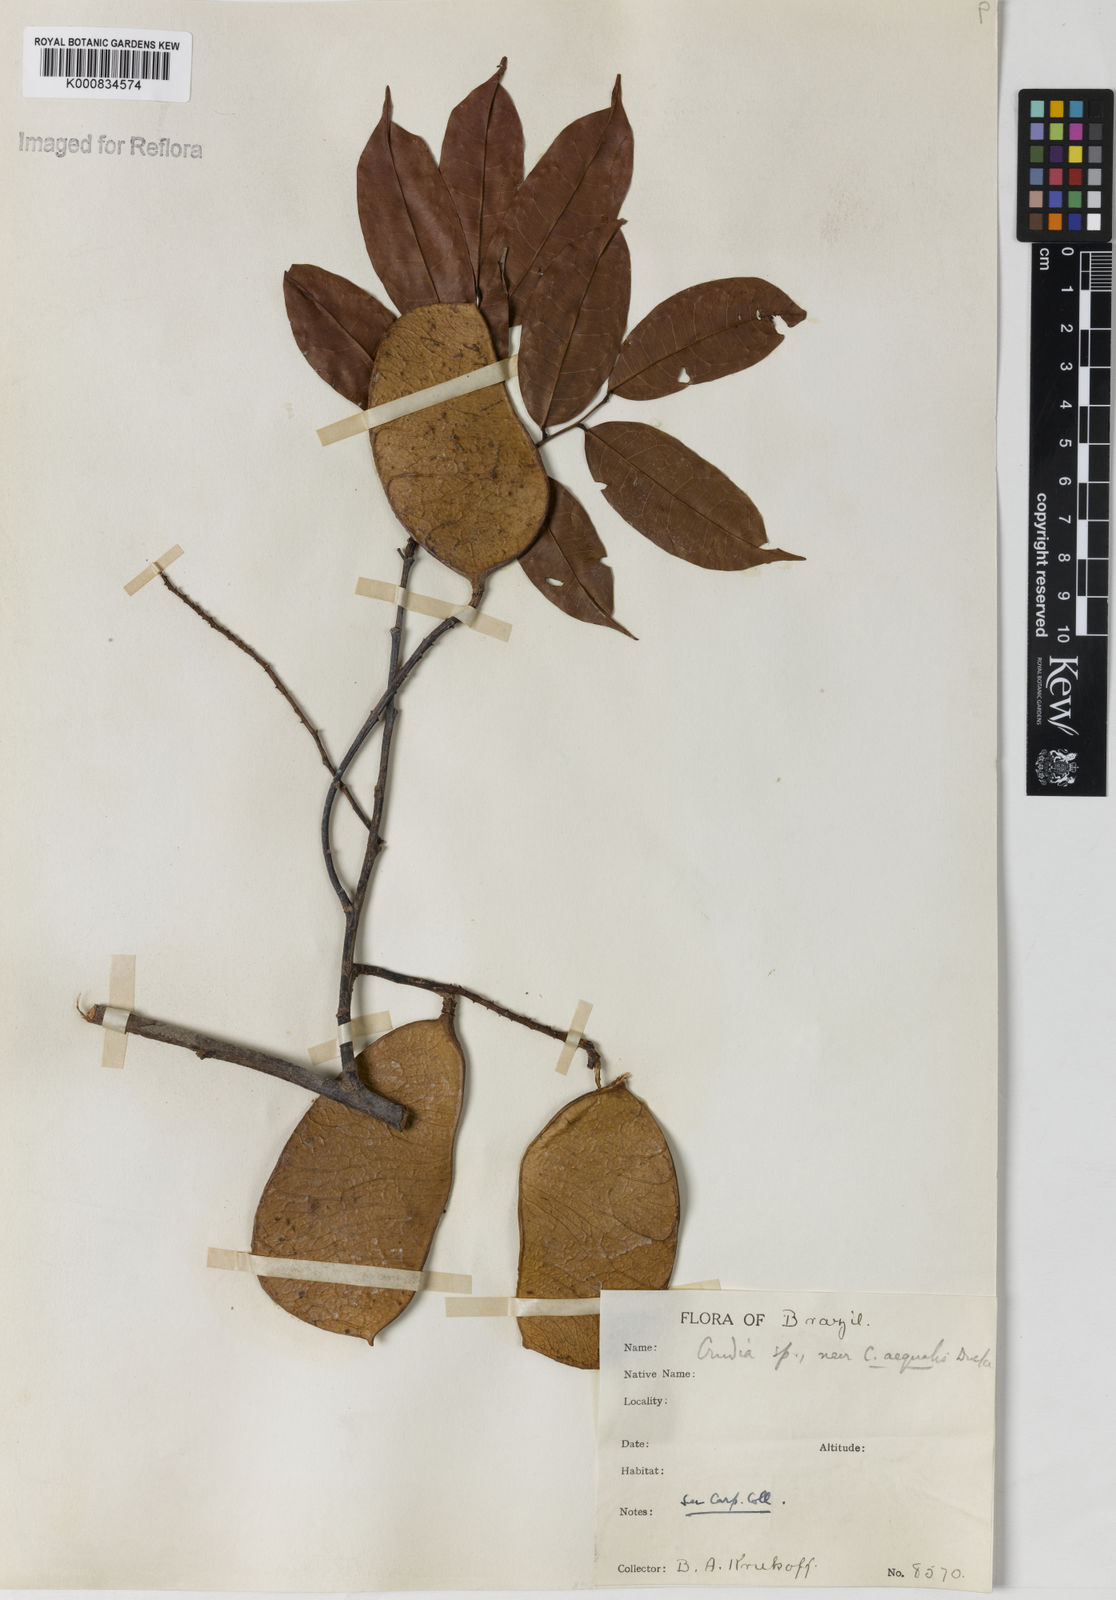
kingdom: Plantae
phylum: Tracheophyta
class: Magnoliopsida
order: Fabales
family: Fabaceae
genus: Crudia
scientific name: Crudia
